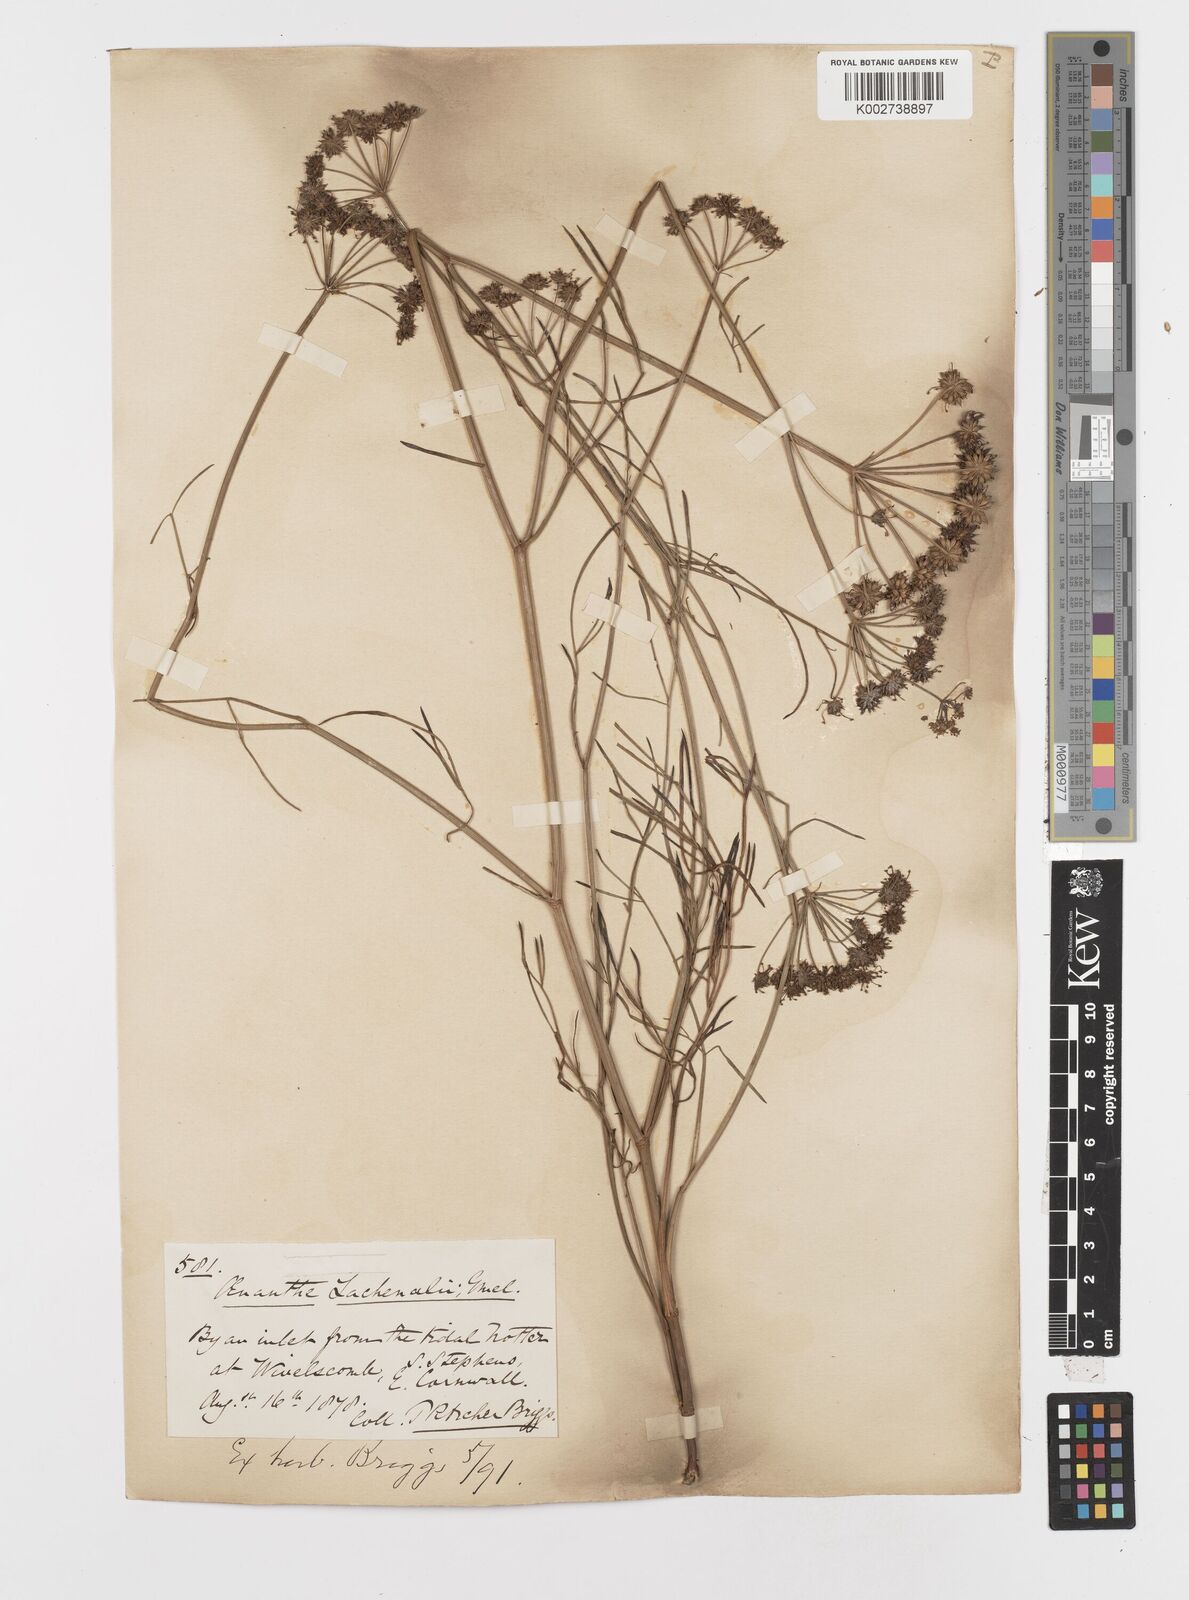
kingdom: Plantae
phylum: Tracheophyta
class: Magnoliopsida
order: Apiales
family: Apiaceae
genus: Oenanthe
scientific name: Oenanthe lachenalii
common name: Parsley water-dropwort
